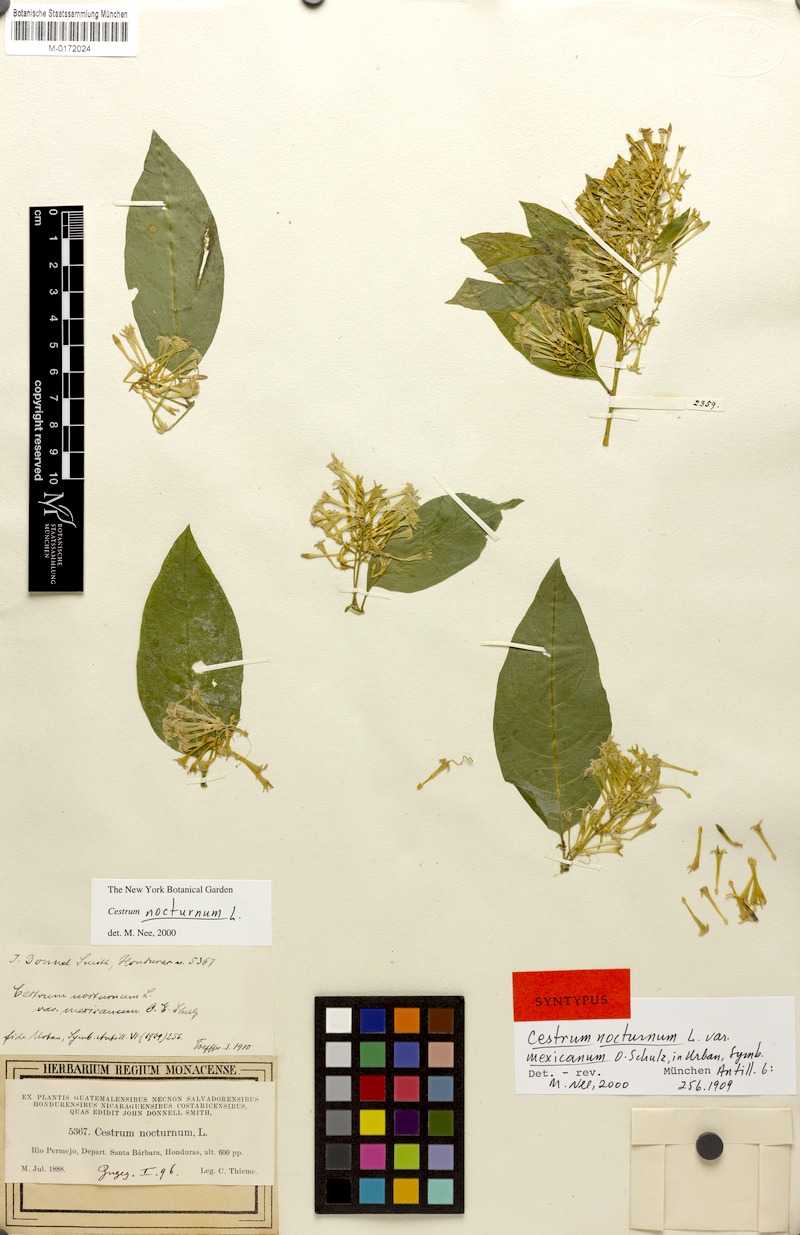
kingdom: Plantae
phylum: Tracheophyta
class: Magnoliopsida
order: Solanales
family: Solanaceae
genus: Cestrum
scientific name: Cestrum nocturnum
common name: Night jessamine
